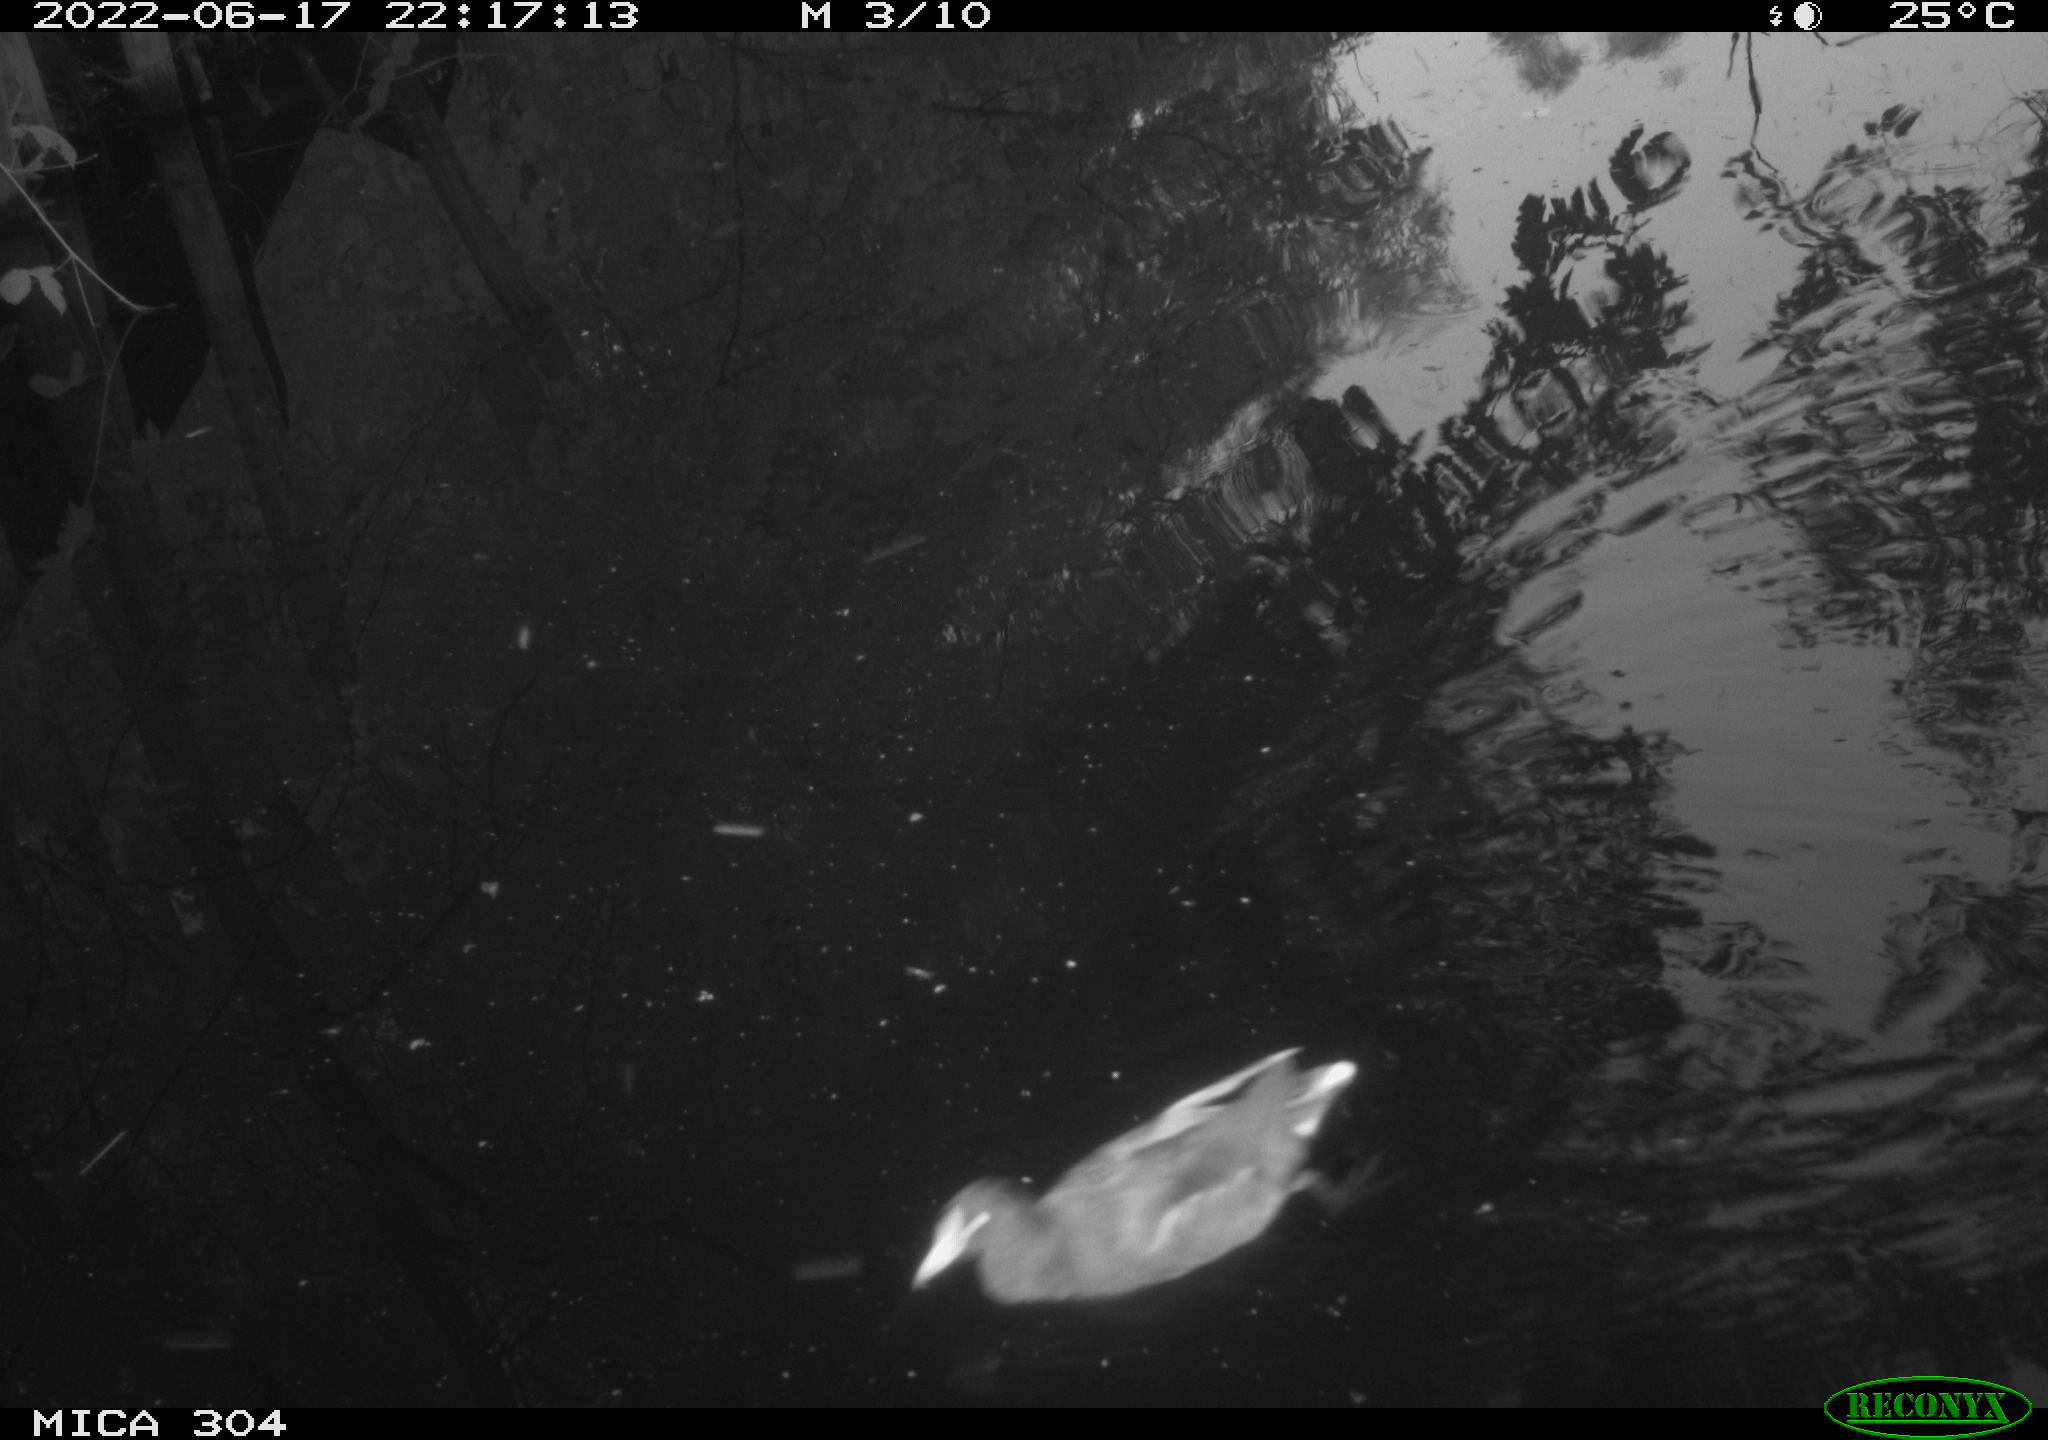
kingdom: Animalia
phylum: Chordata
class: Aves
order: Gruiformes
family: Rallidae
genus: Gallinula
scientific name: Gallinula chloropus
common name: Common moorhen
